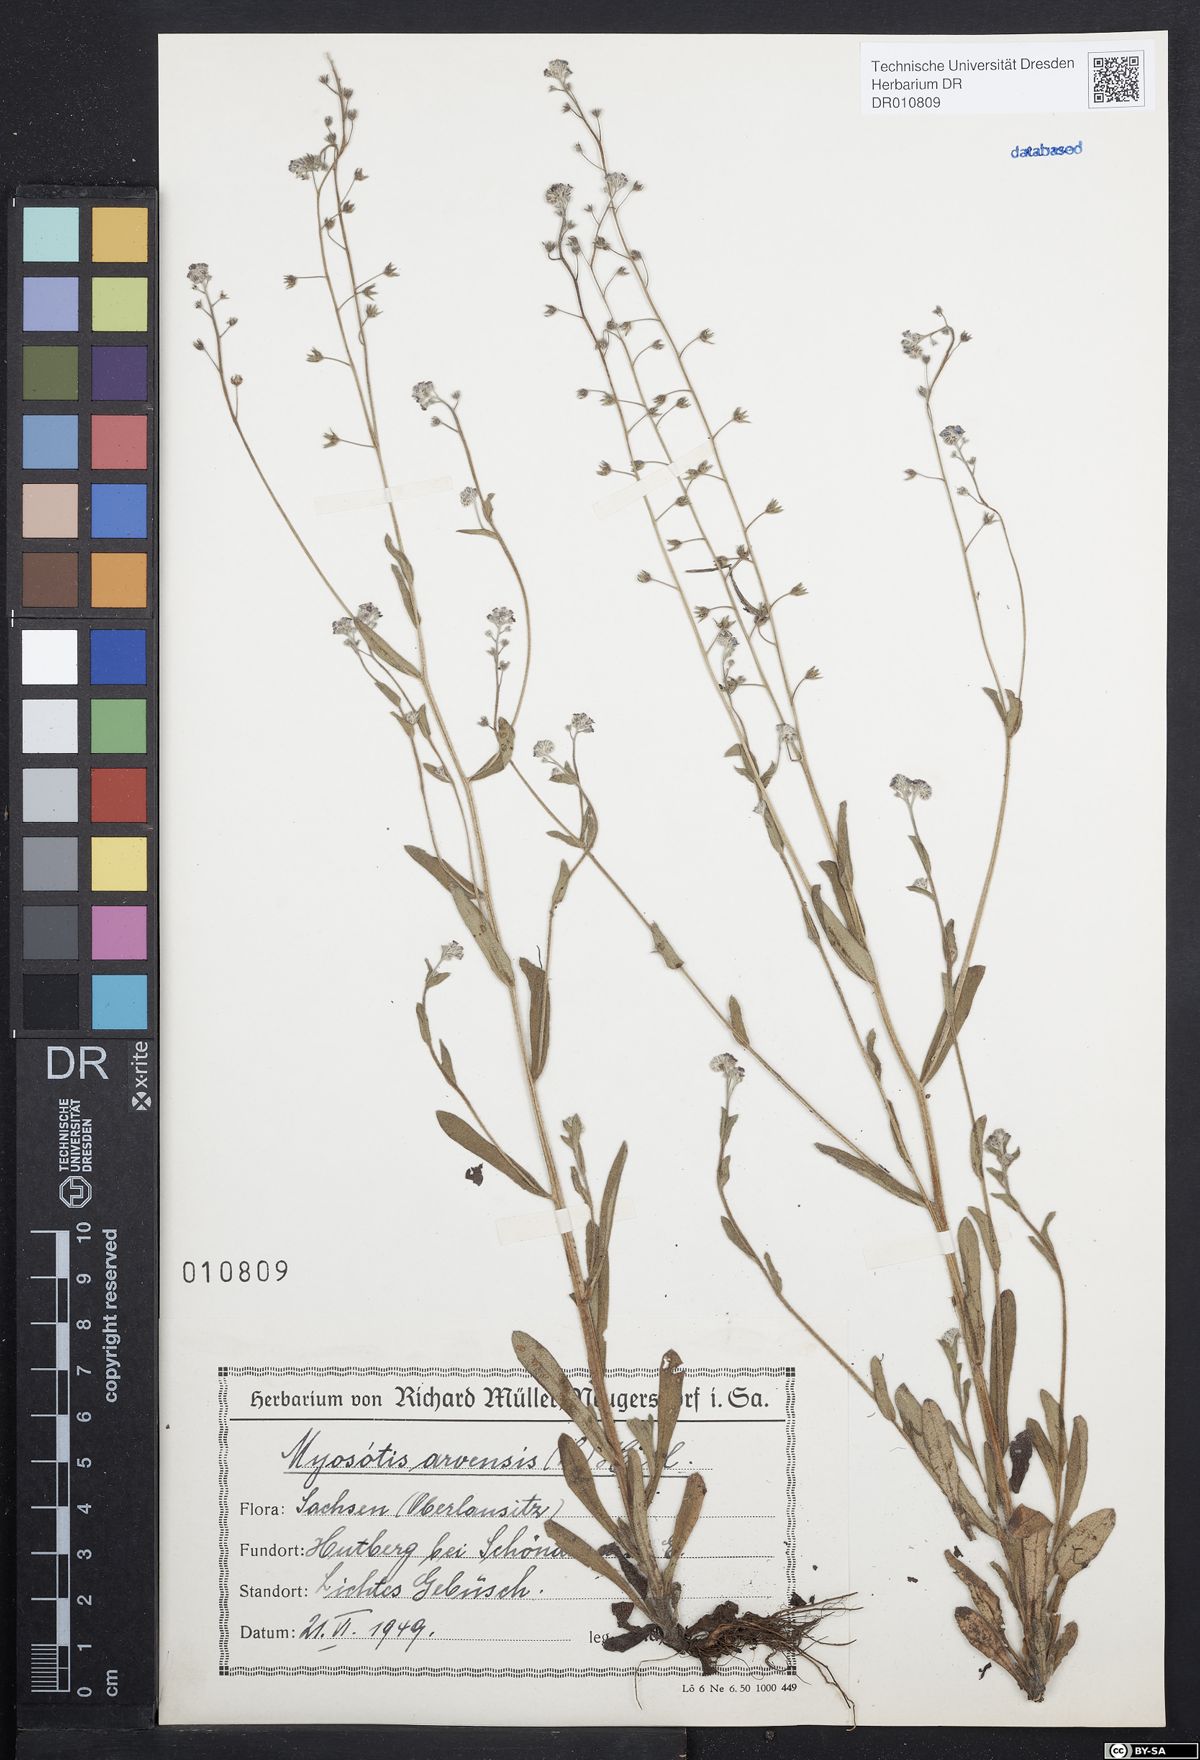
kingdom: Plantae
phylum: Tracheophyta
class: Magnoliopsida
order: Boraginales
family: Boraginaceae
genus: Myosotis
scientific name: Myosotis arvensis
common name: Field forget-me-not
